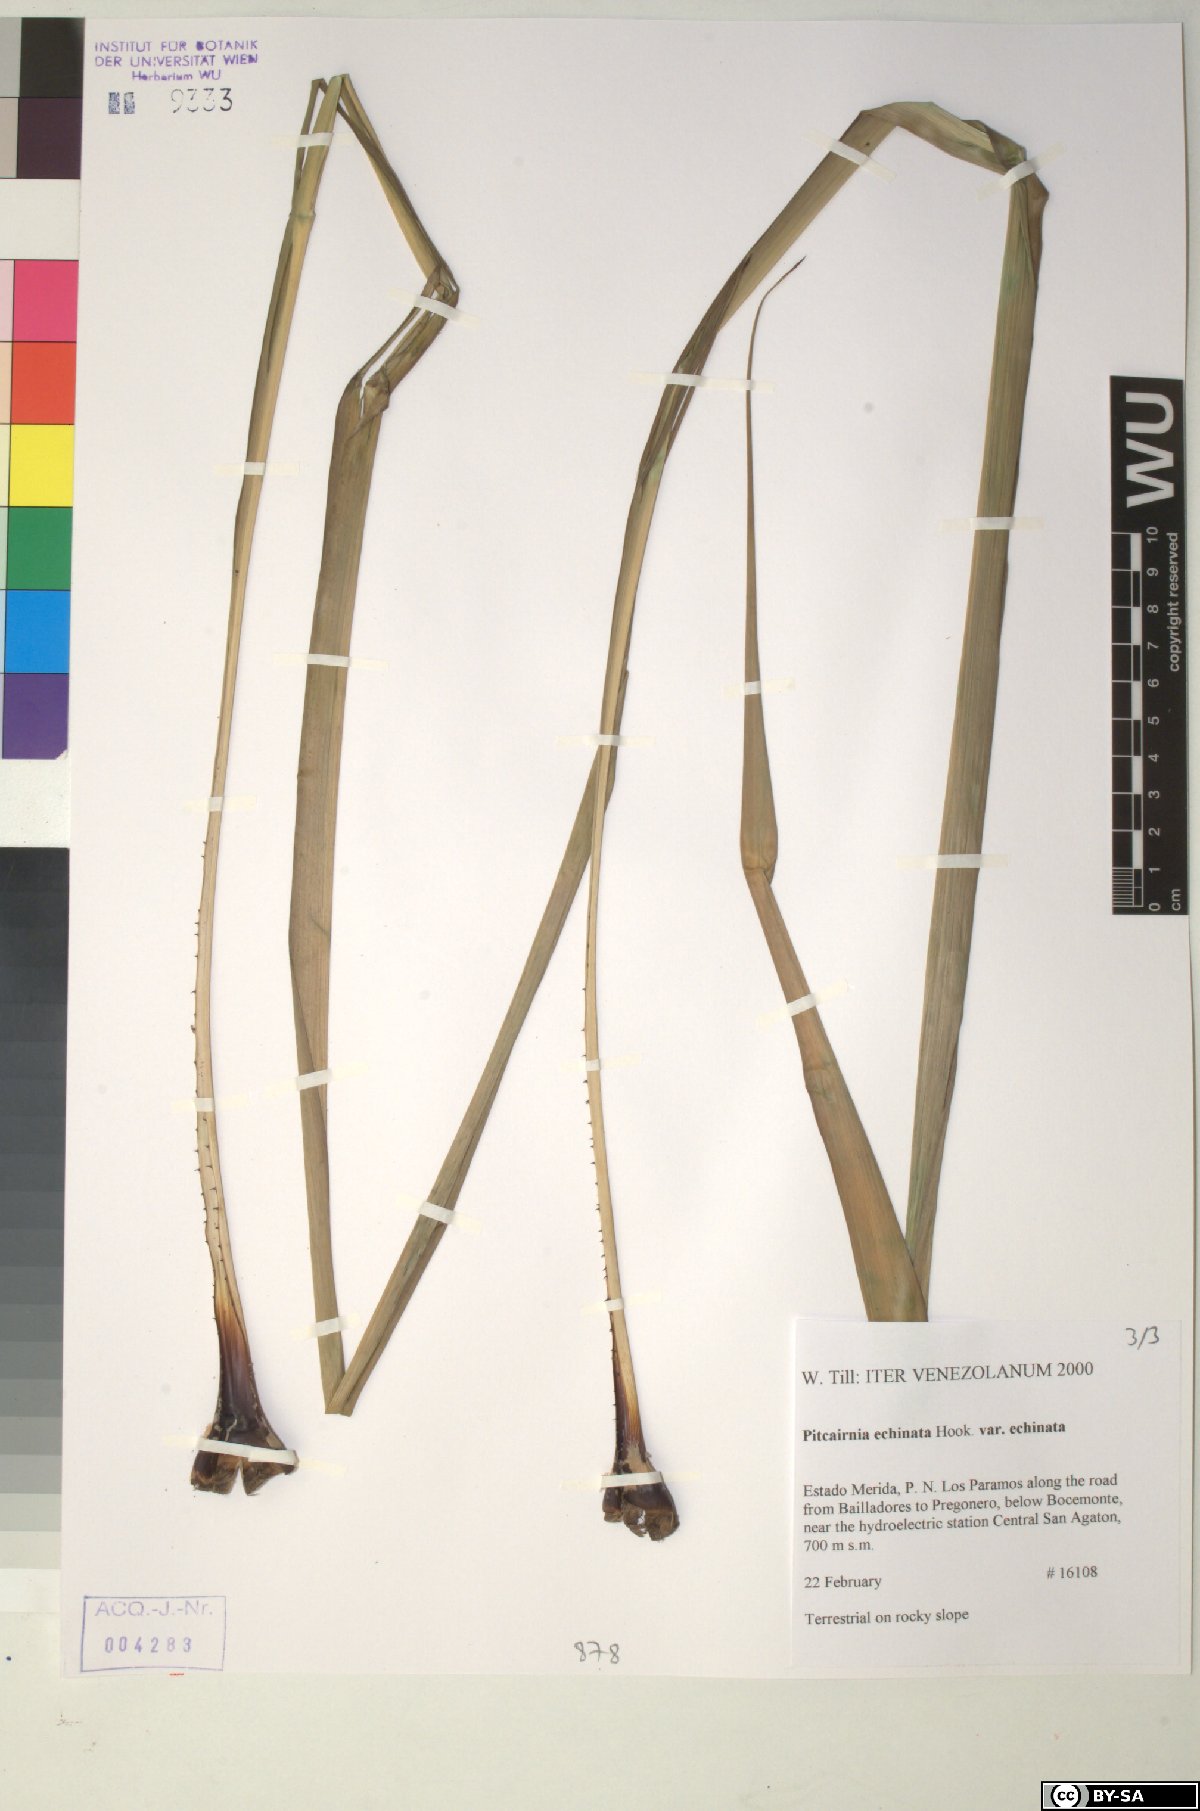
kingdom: Plantae
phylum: Tracheophyta
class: Liliopsida
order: Poales
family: Bromeliaceae
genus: Pitcairnia
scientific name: Pitcairnia echinata
